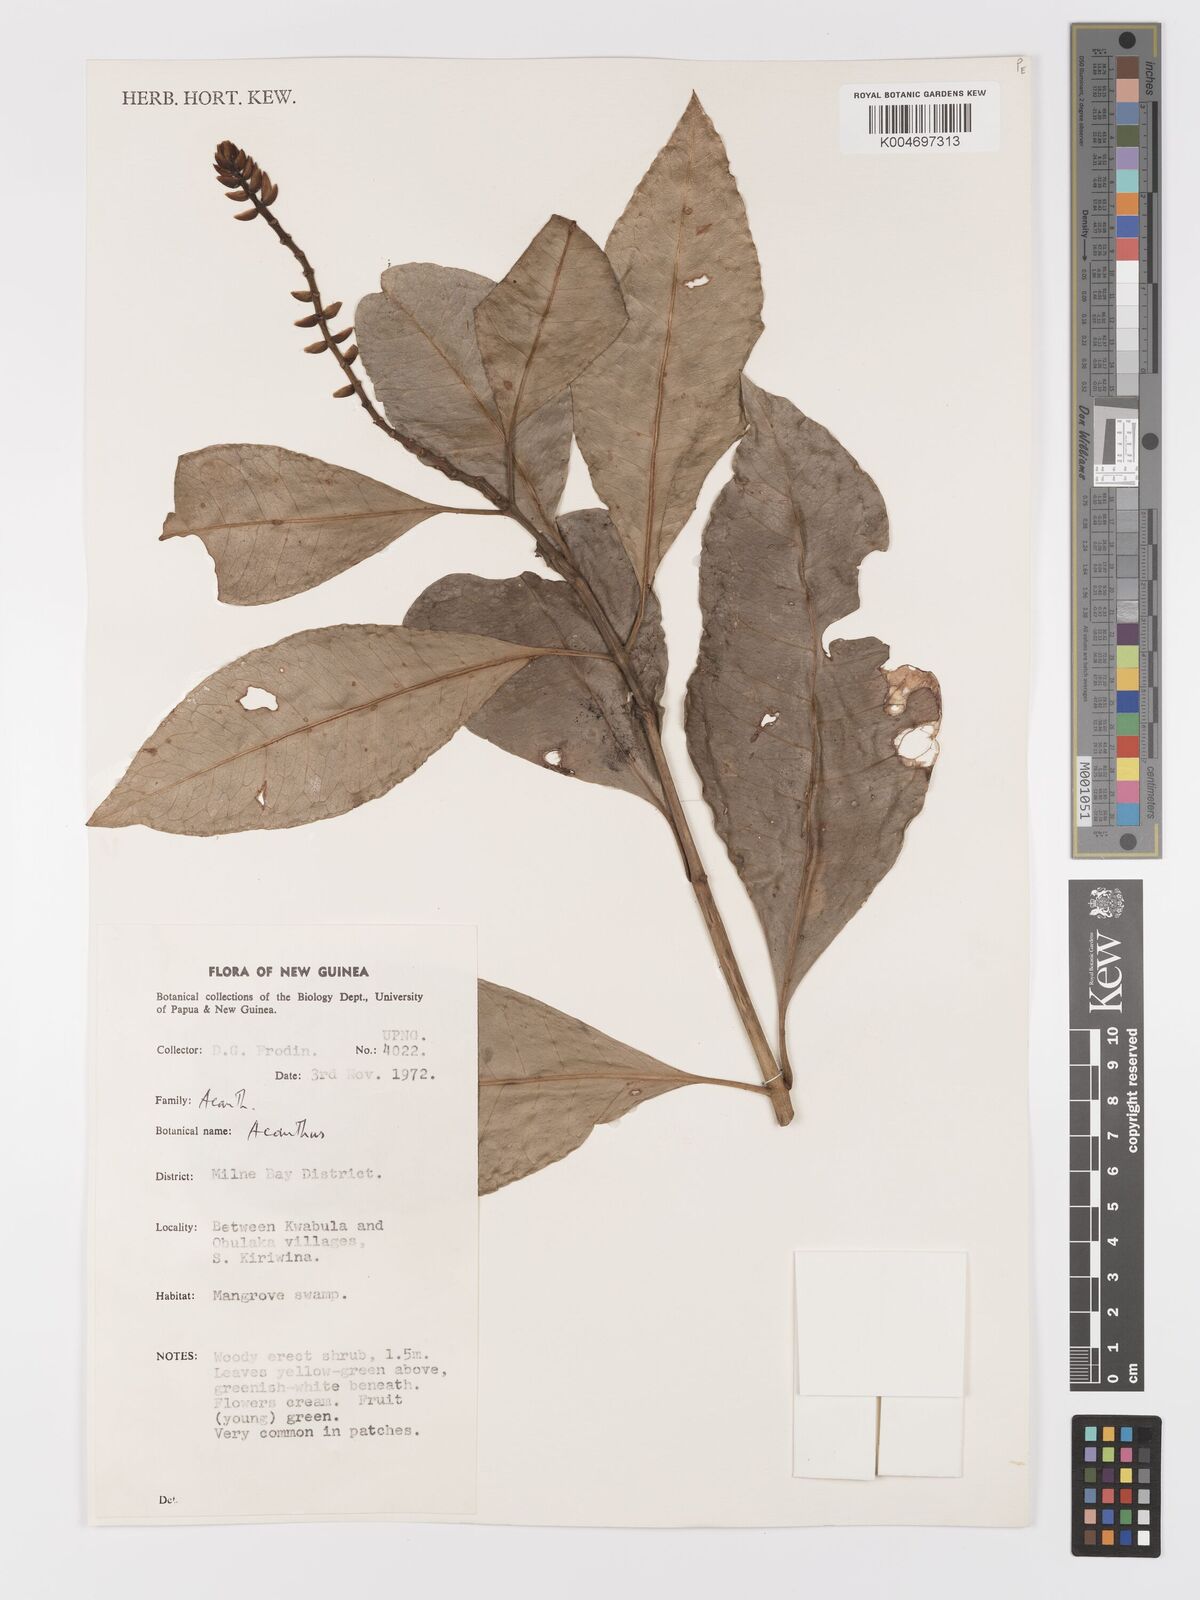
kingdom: Plantae
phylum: Tracheophyta
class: Magnoliopsida
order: Lamiales
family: Acanthaceae
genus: Acanthus
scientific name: Acanthus
